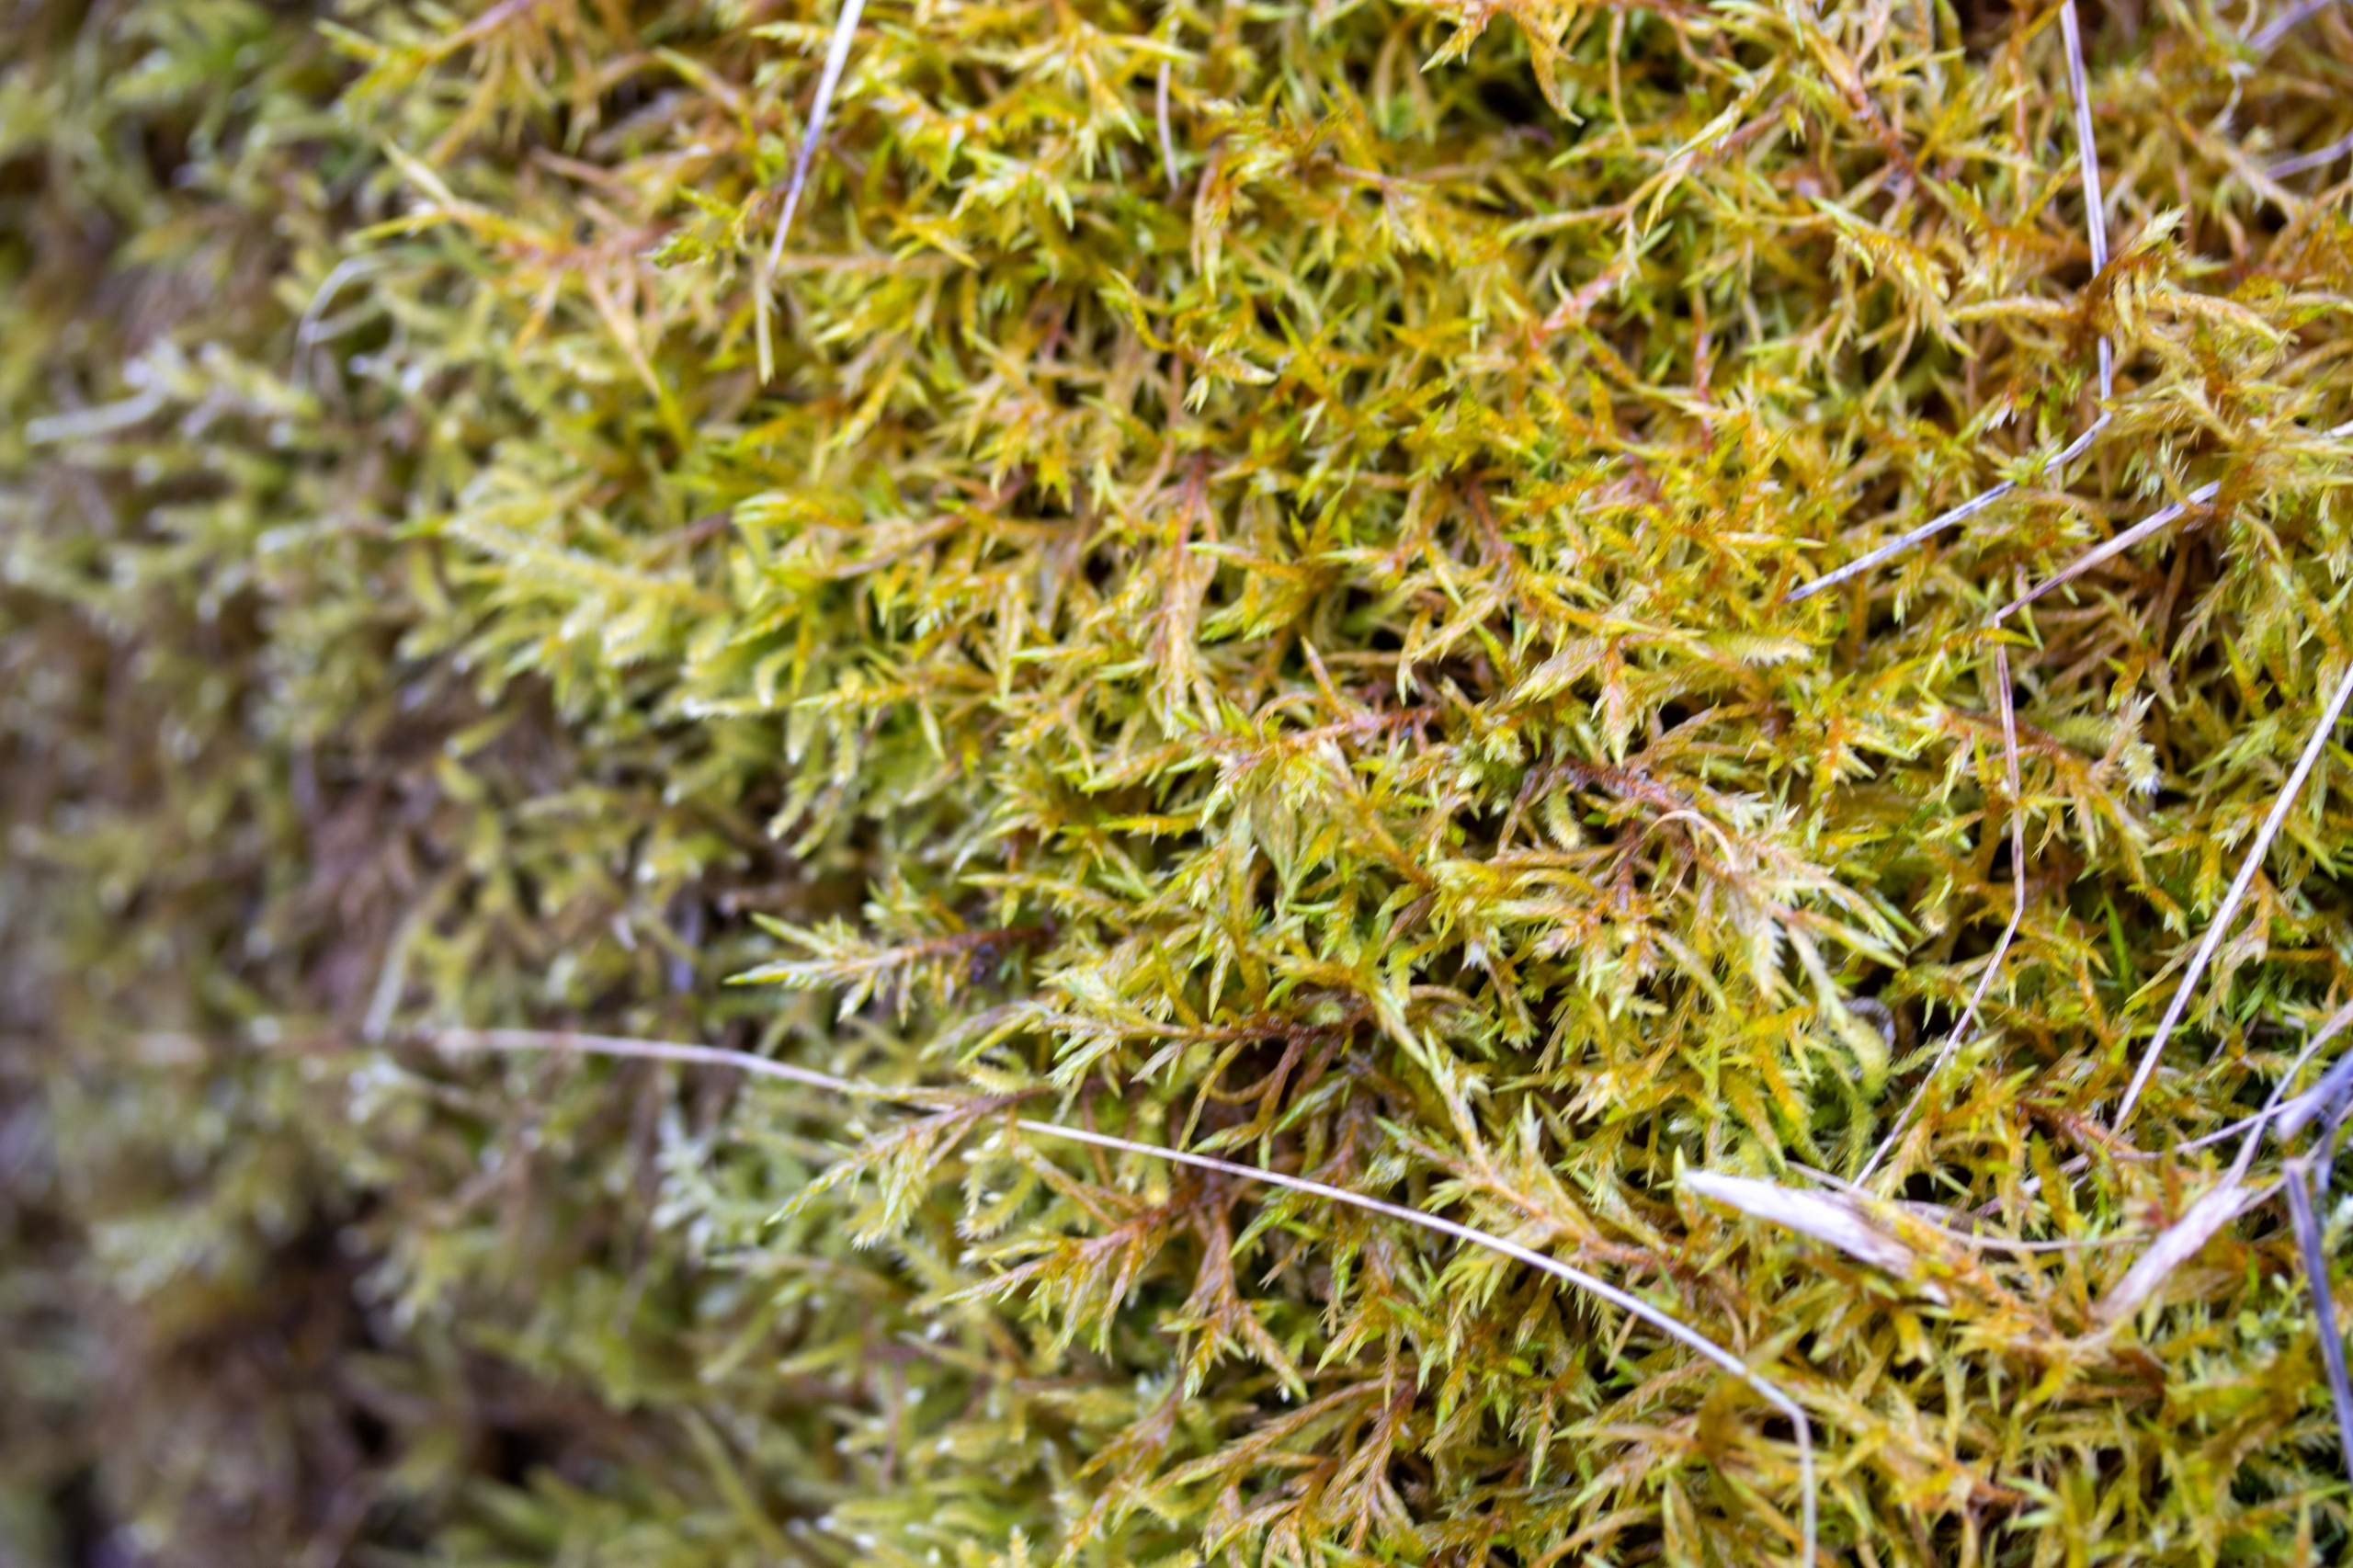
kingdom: Plantae
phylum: Bryophyta
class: Bryopsida
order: Hypnales
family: Pylaisiaceae
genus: Calliergonella
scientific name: Calliergonella cuspidata
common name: Spids spydmos
